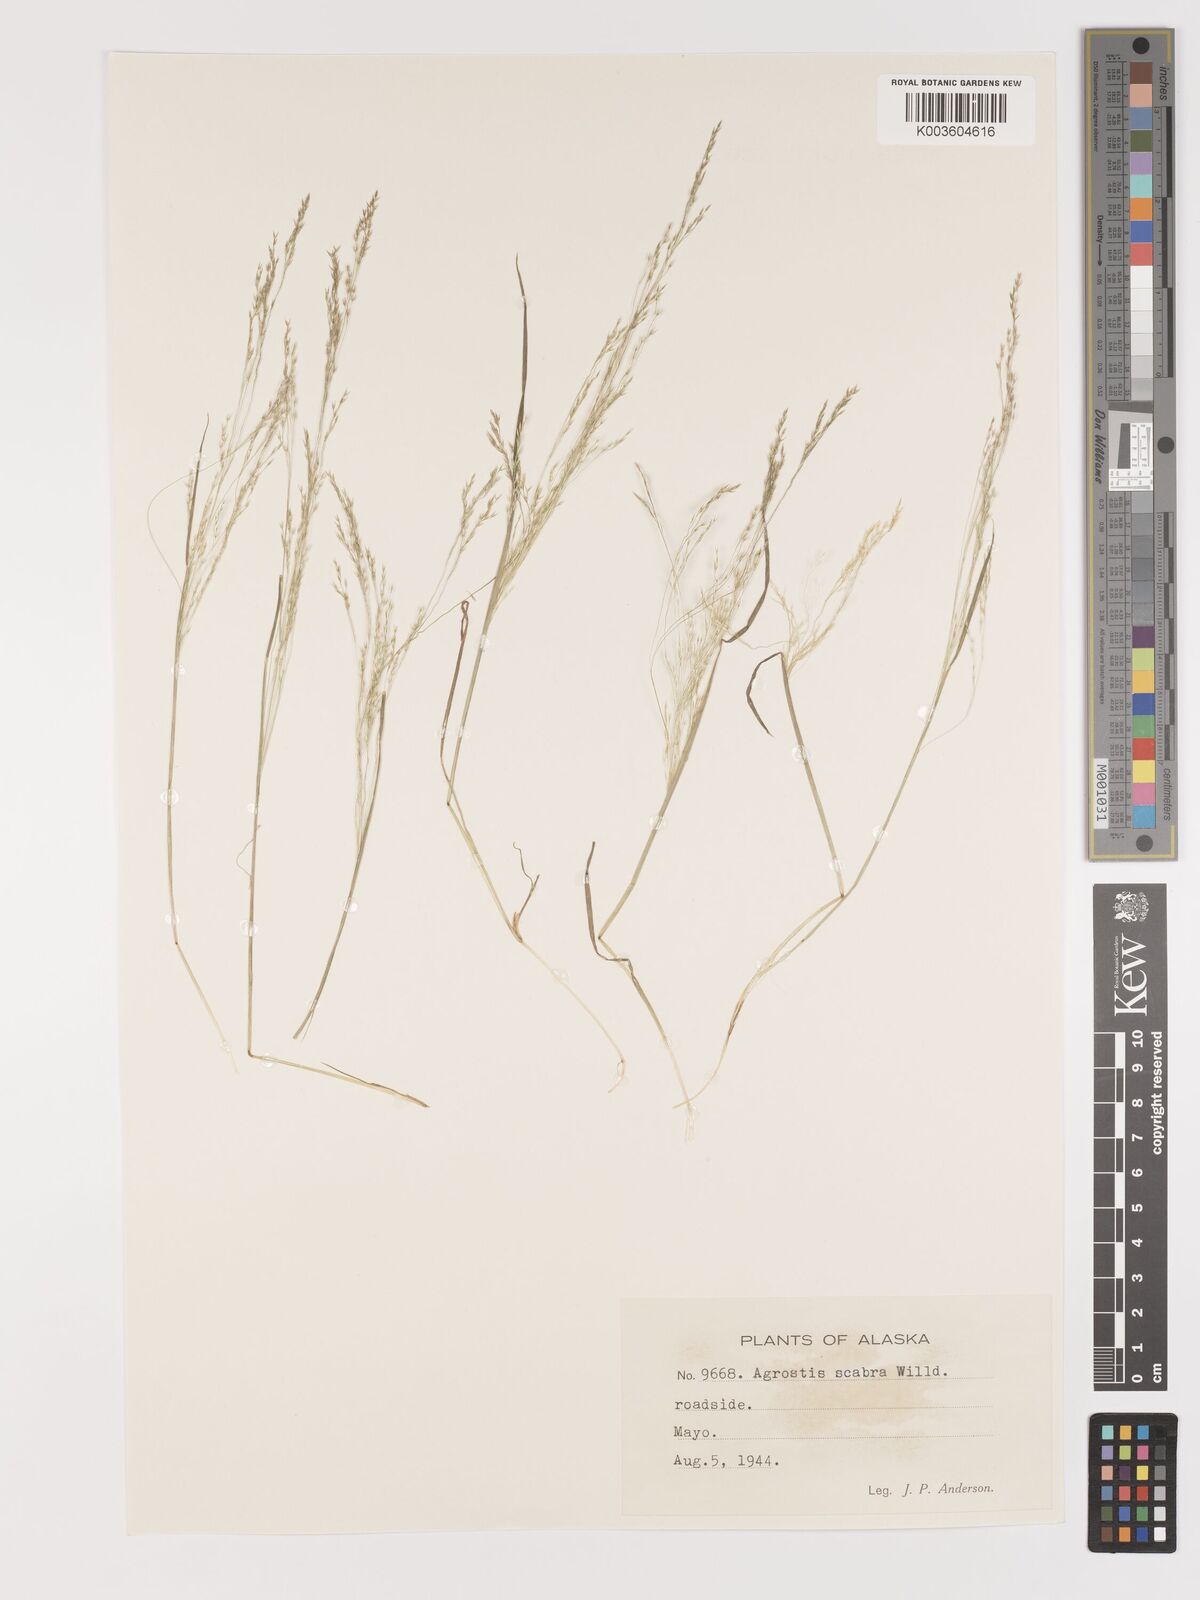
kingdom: Plantae
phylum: Tracheophyta
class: Liliopsida
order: Poales
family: Poaceae
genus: Agrostis
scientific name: Agrostis
